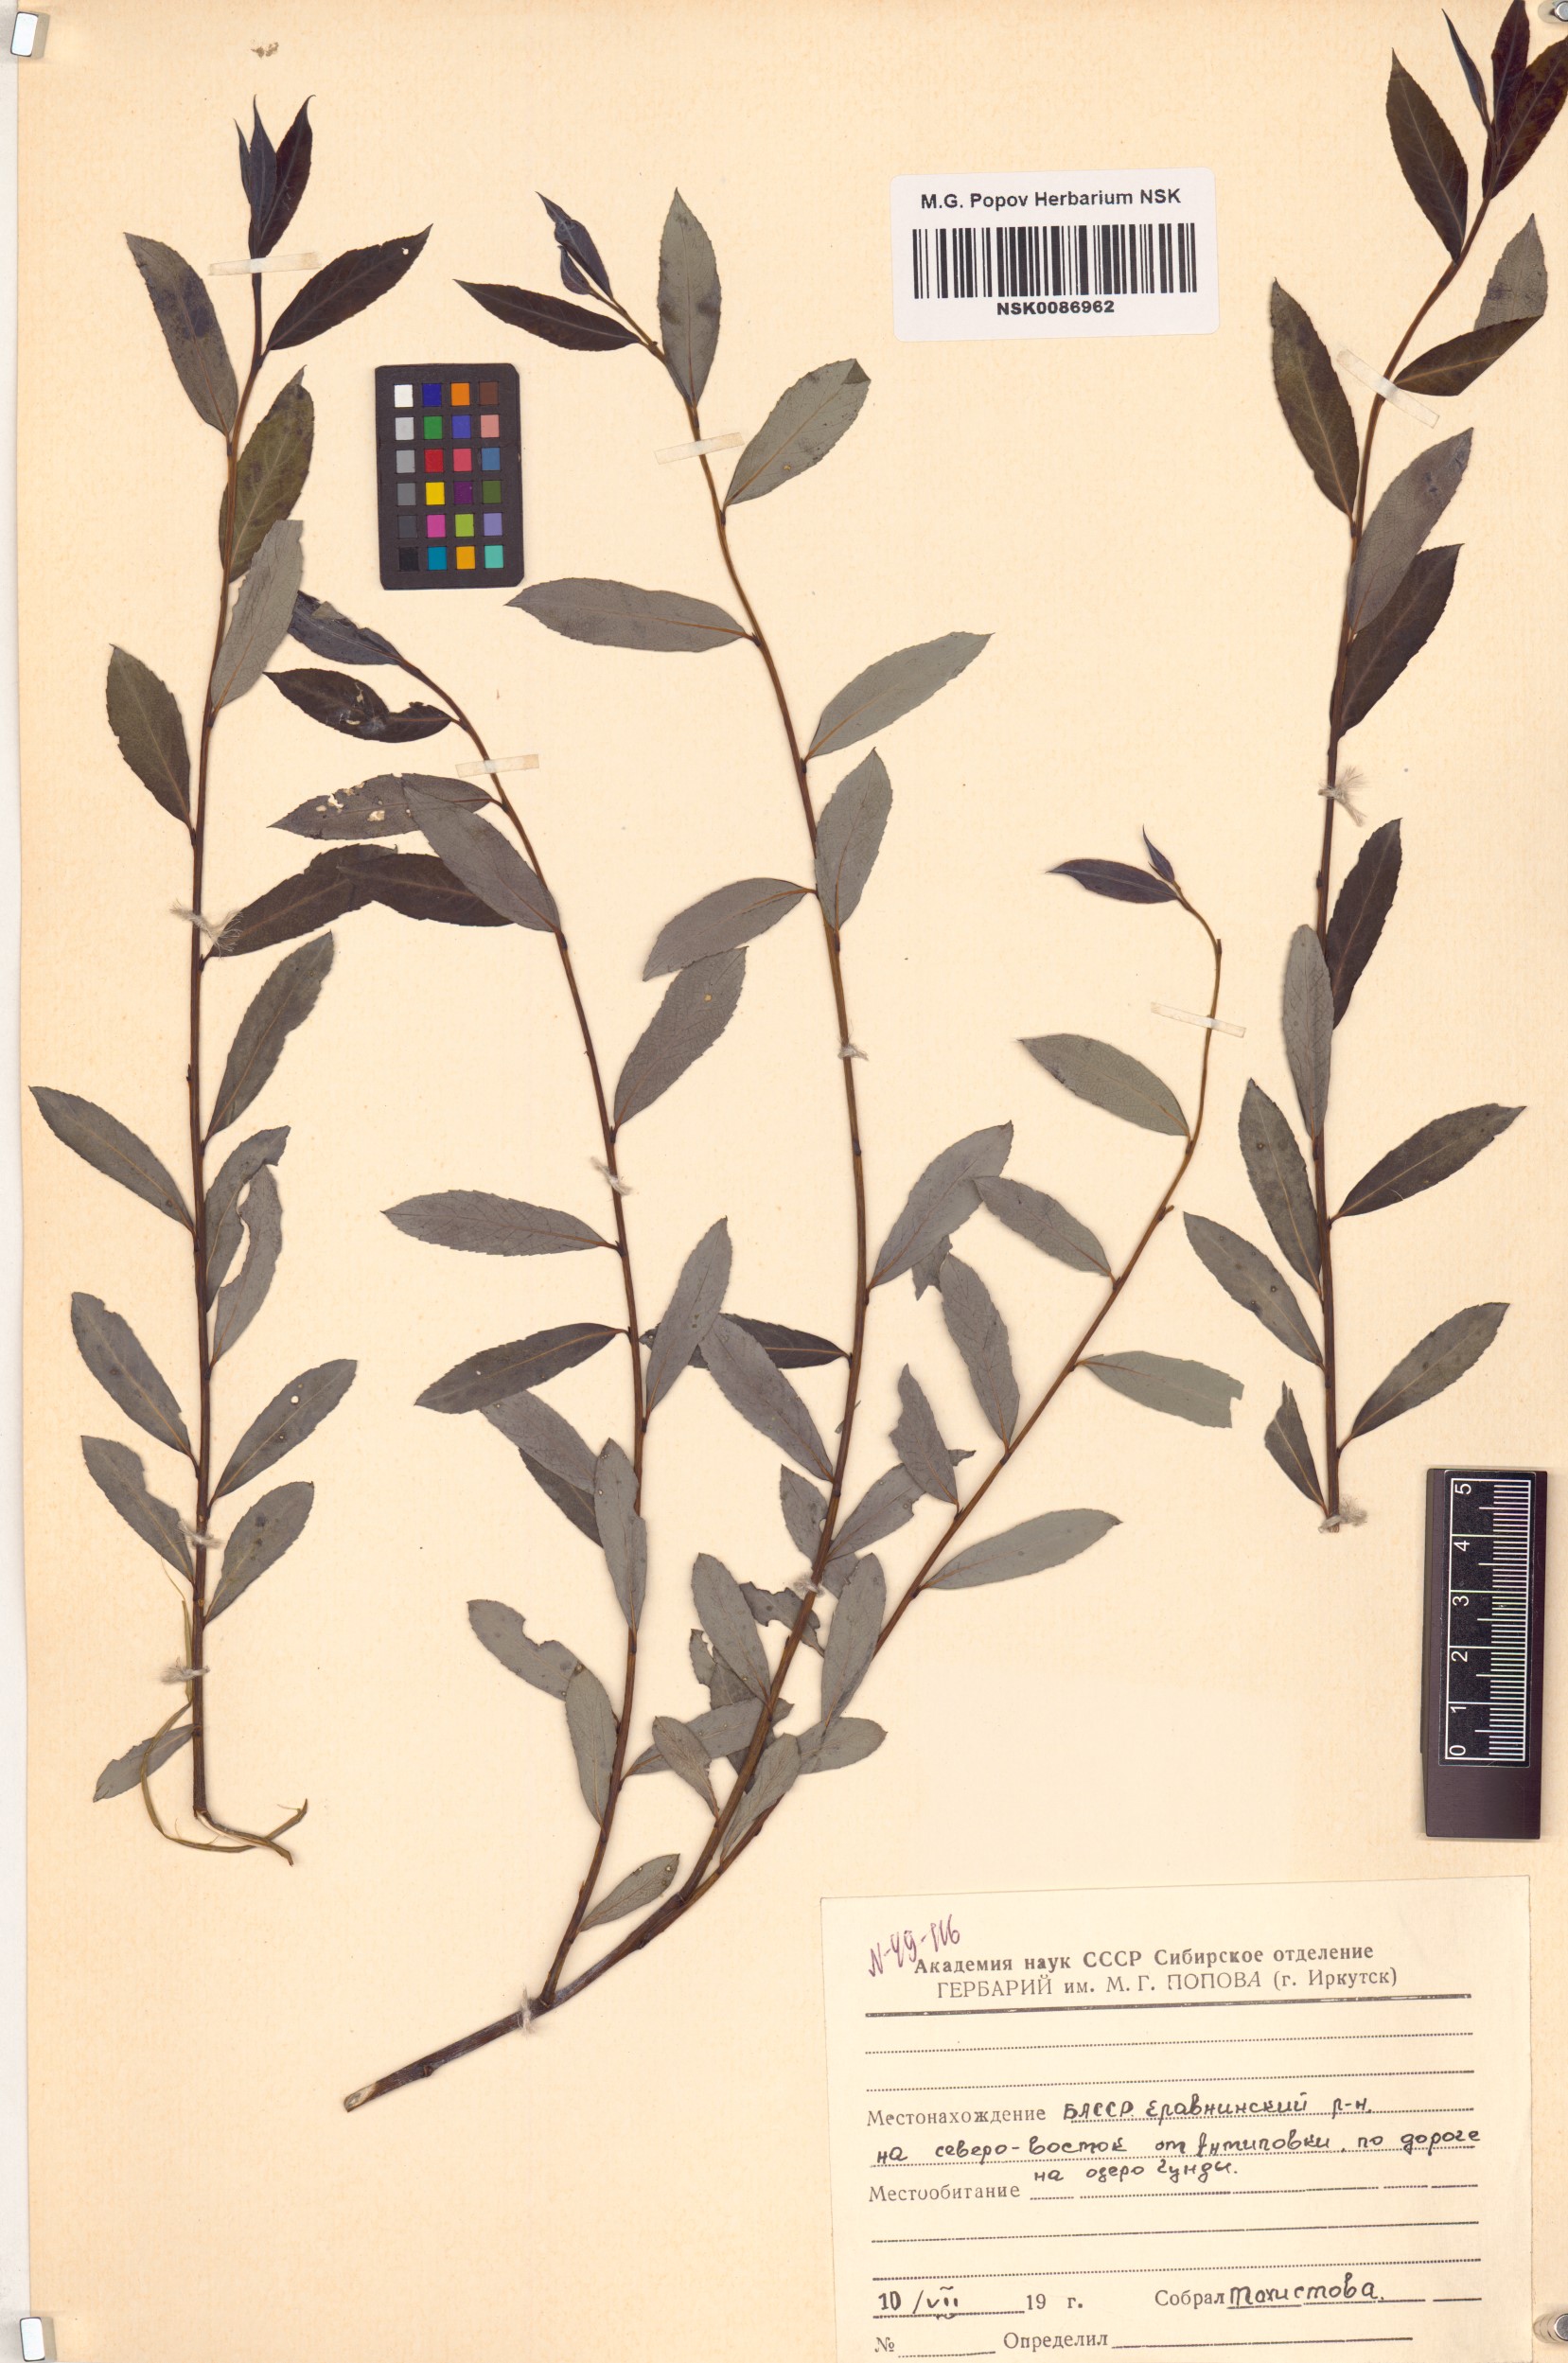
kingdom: Plantae
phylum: Tracheophyta
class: Magnoliopsida
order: Malpighiales
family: Salicaceae
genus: Chosenia
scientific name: Chosenia arbutifolia
